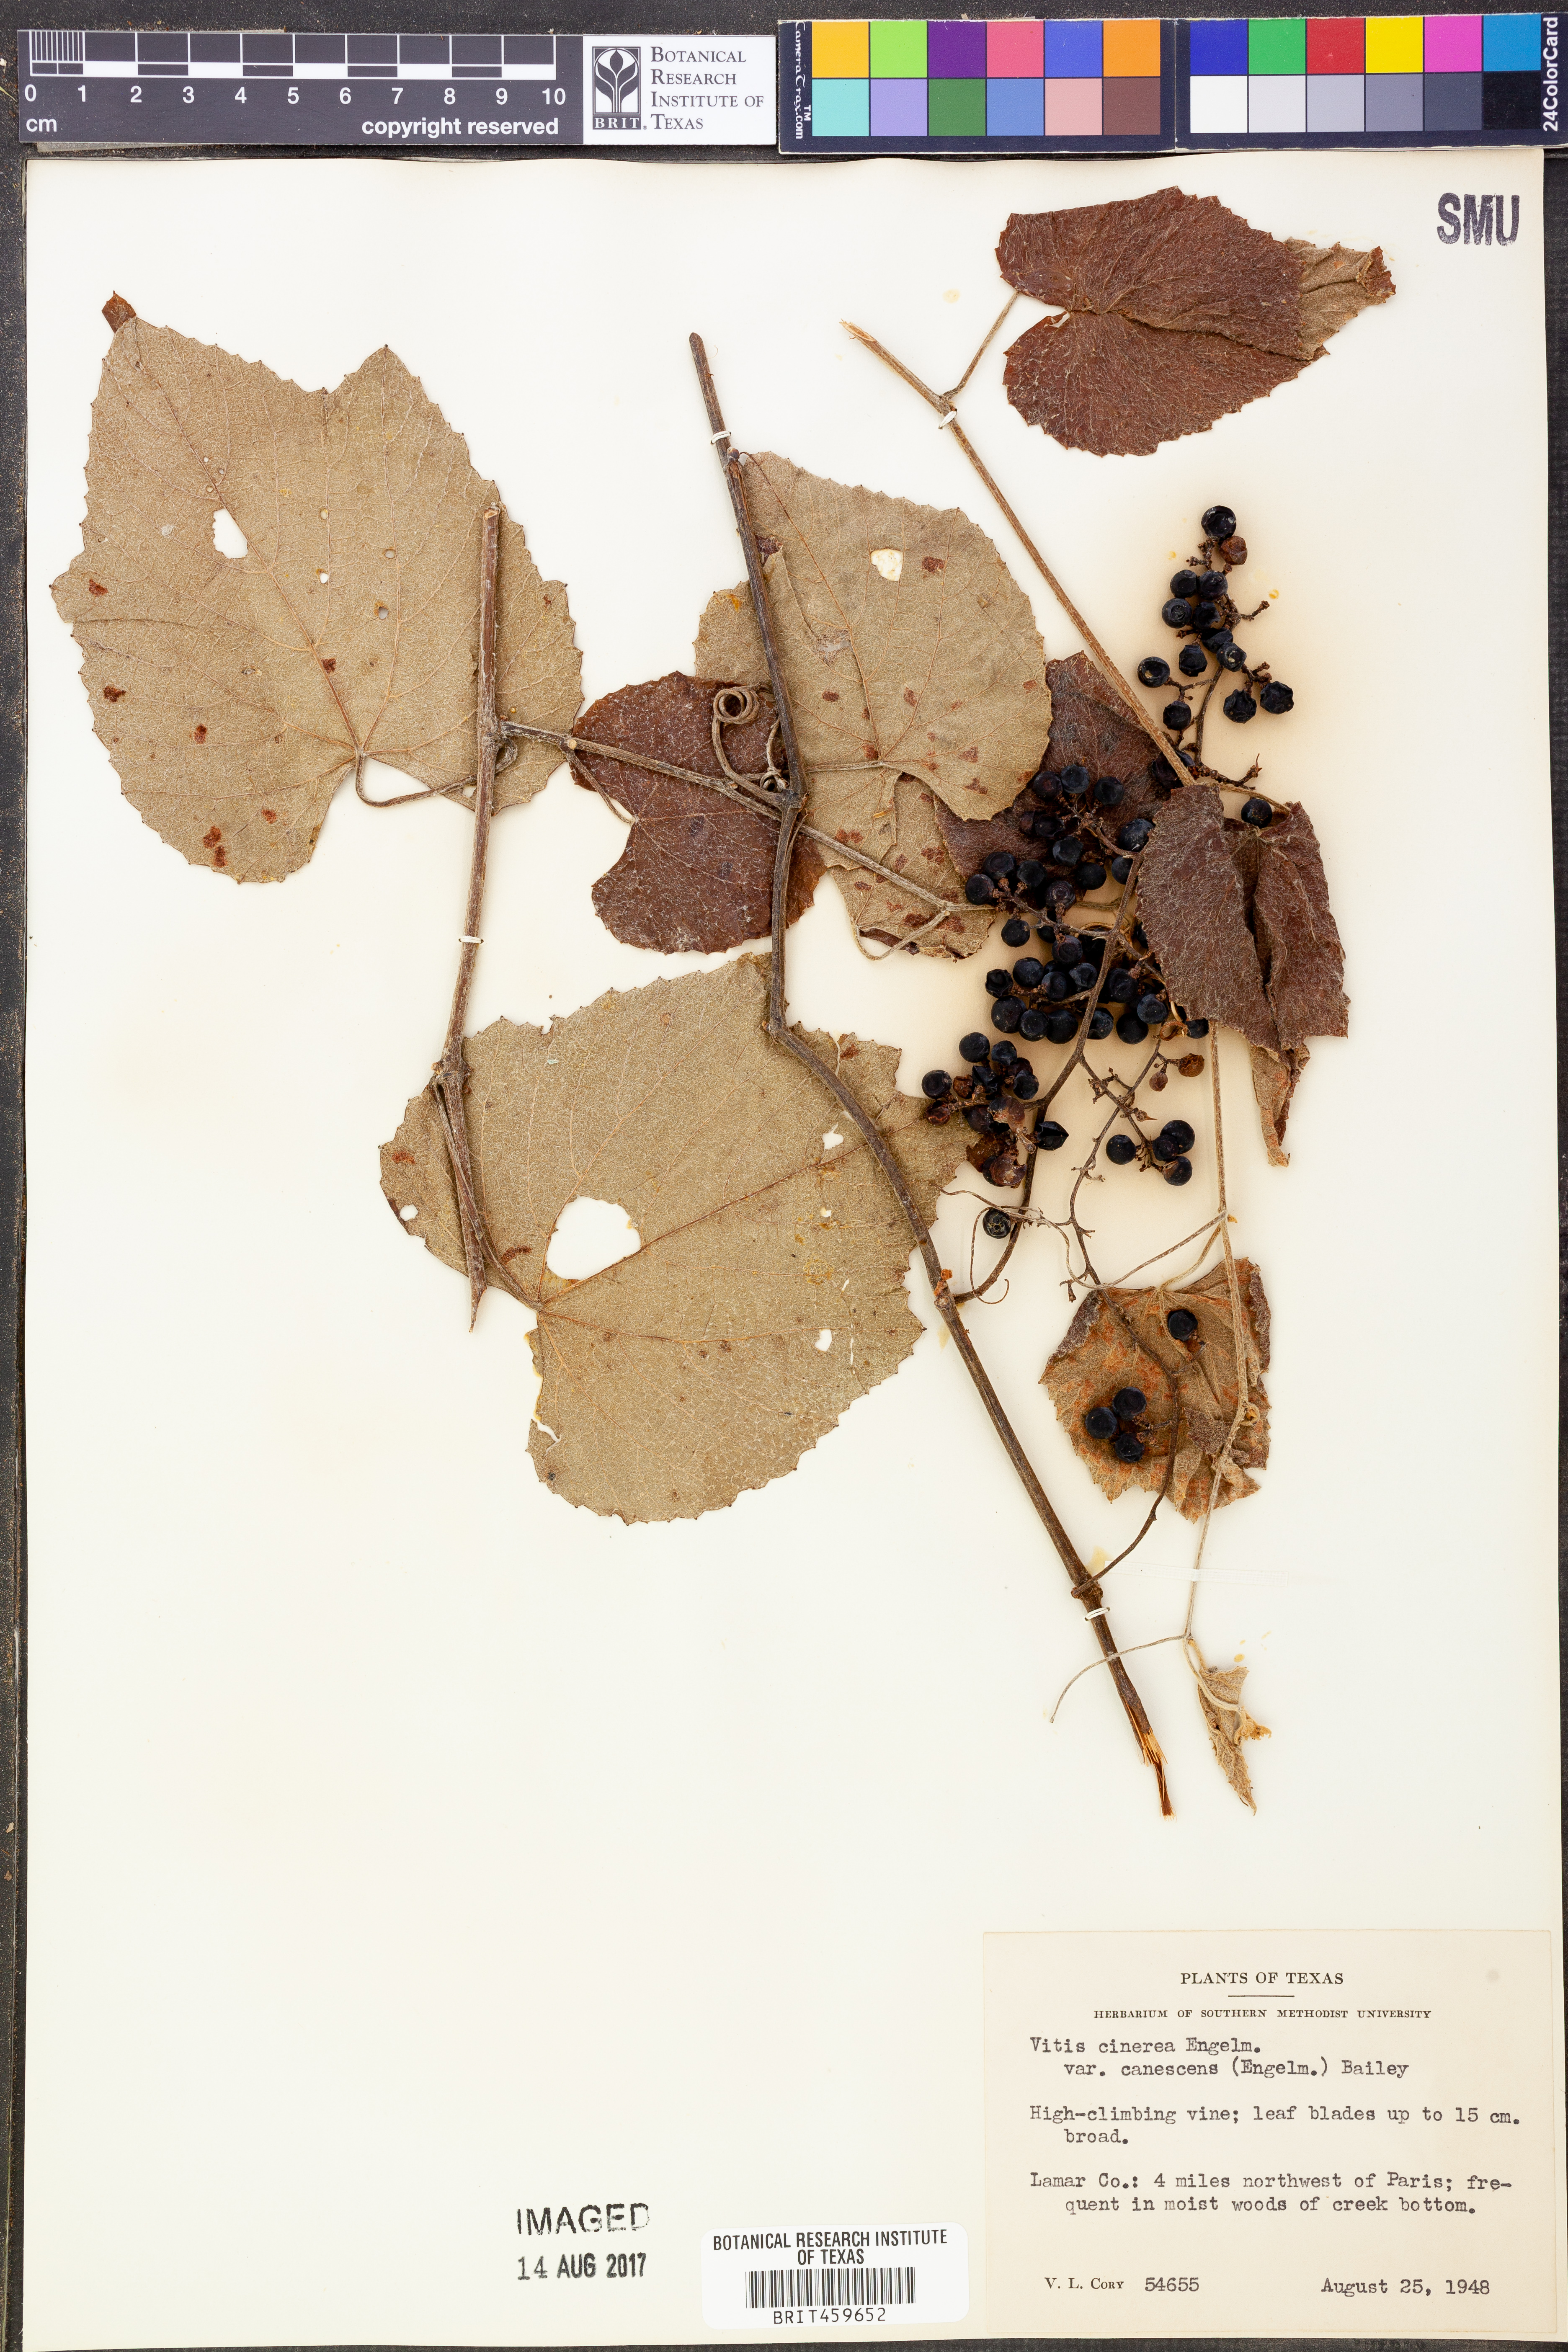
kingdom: Plantae
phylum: Tracheophyta
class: Magnoliopsida
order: Vitales
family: Vitaceae
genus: Vitis
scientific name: Vitis cinerea
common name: Ashy grape
